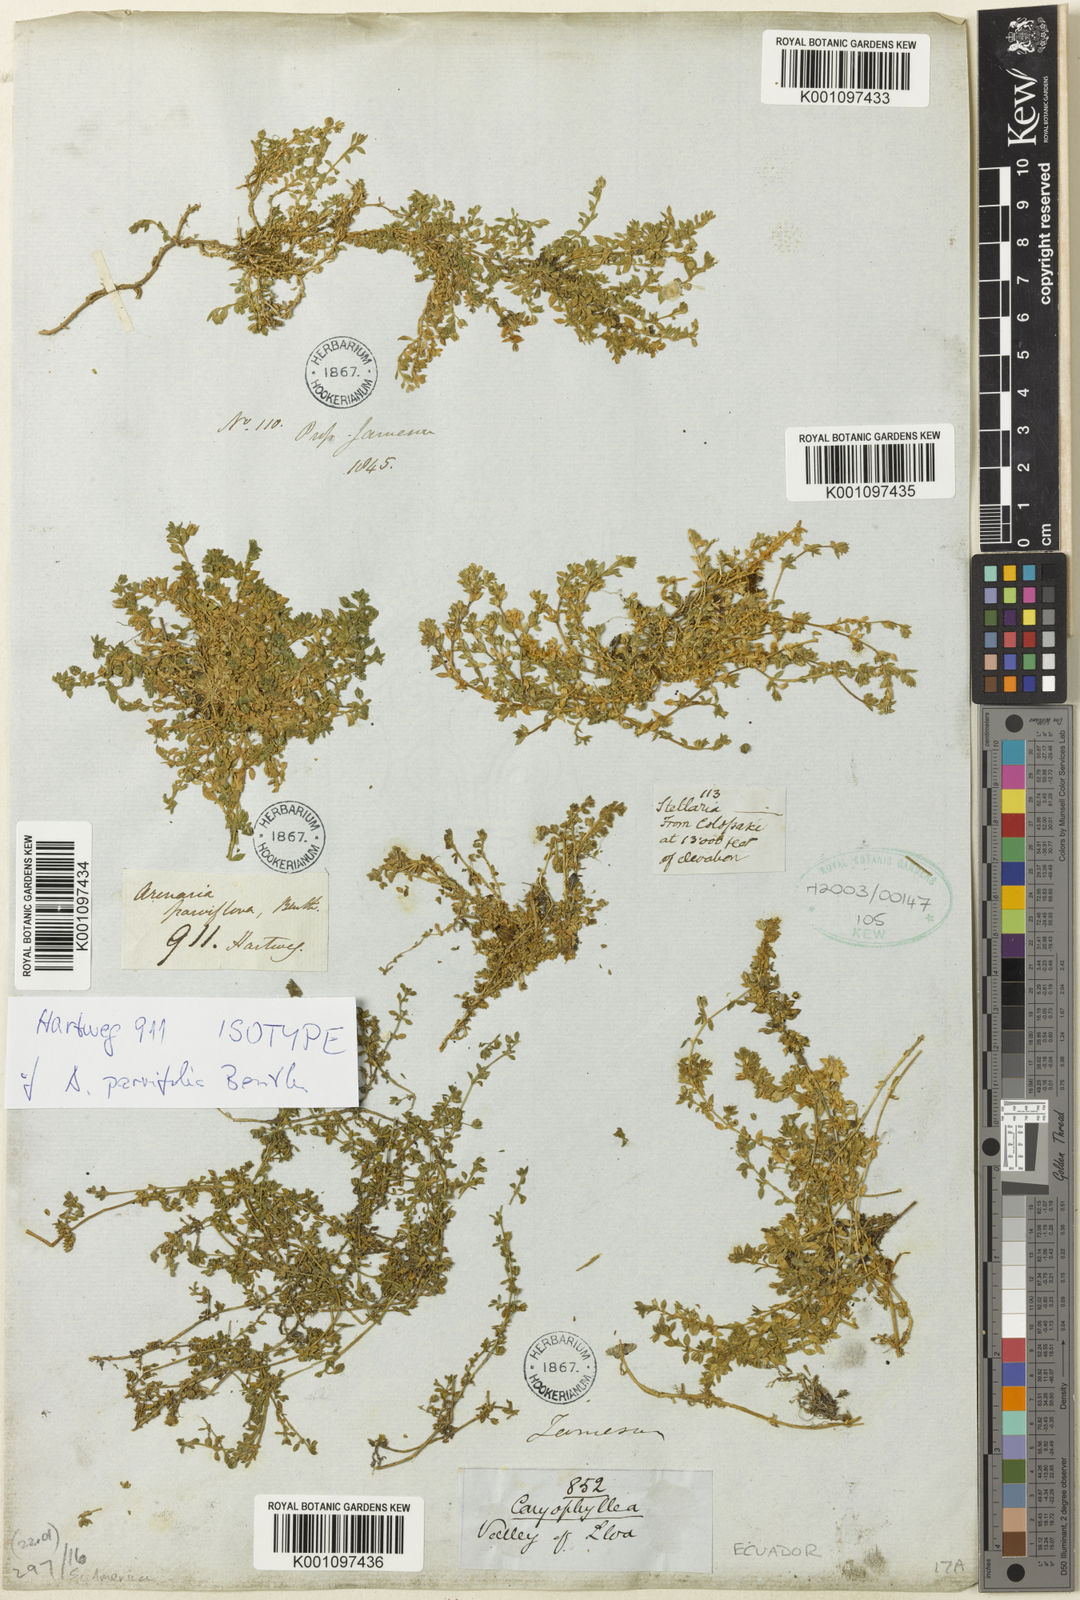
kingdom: Plantae
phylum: Tracheophyta
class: Magnoliopsida
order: Caryophyllales
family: Caryophyllaceae
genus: Arenaria
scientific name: Arenaria
